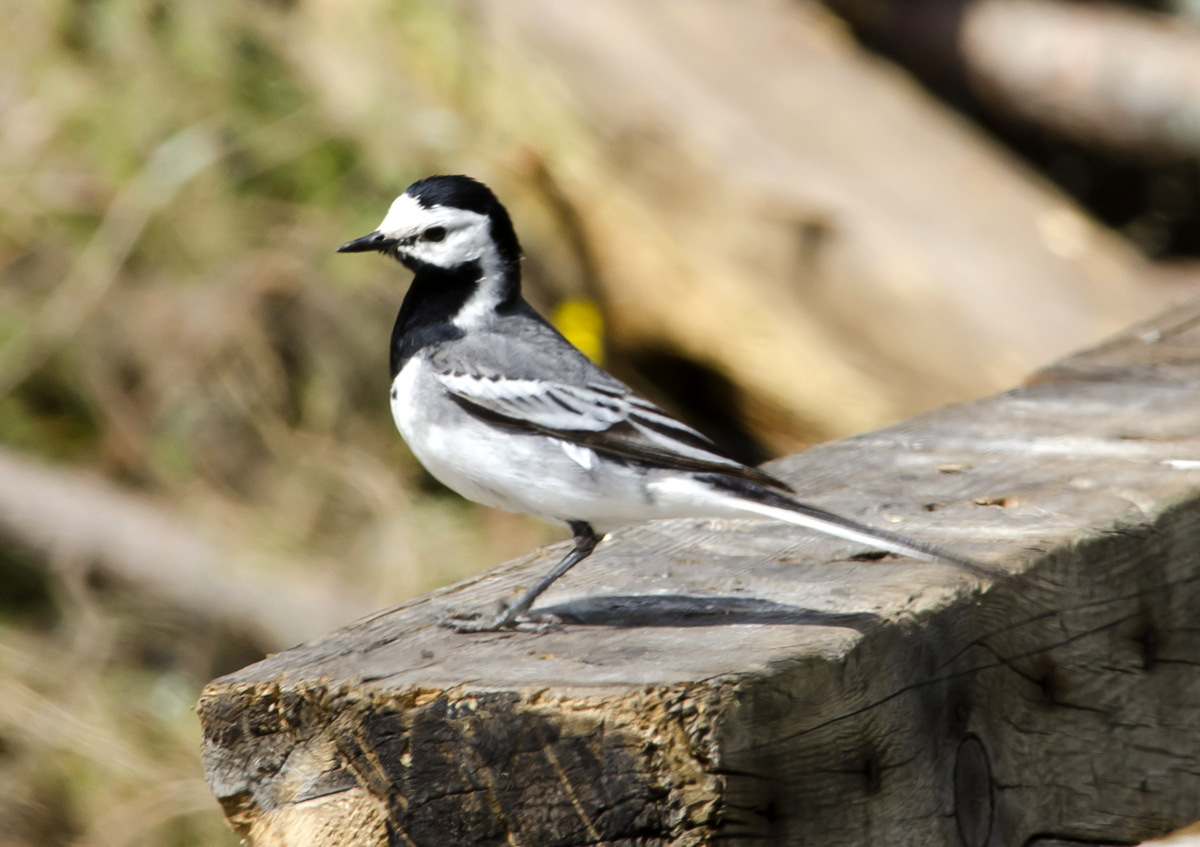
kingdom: Animalia
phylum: Chordata
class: Aves
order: Passeriformes
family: Motacillidae
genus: Motacilla
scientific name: Motacilla alba
